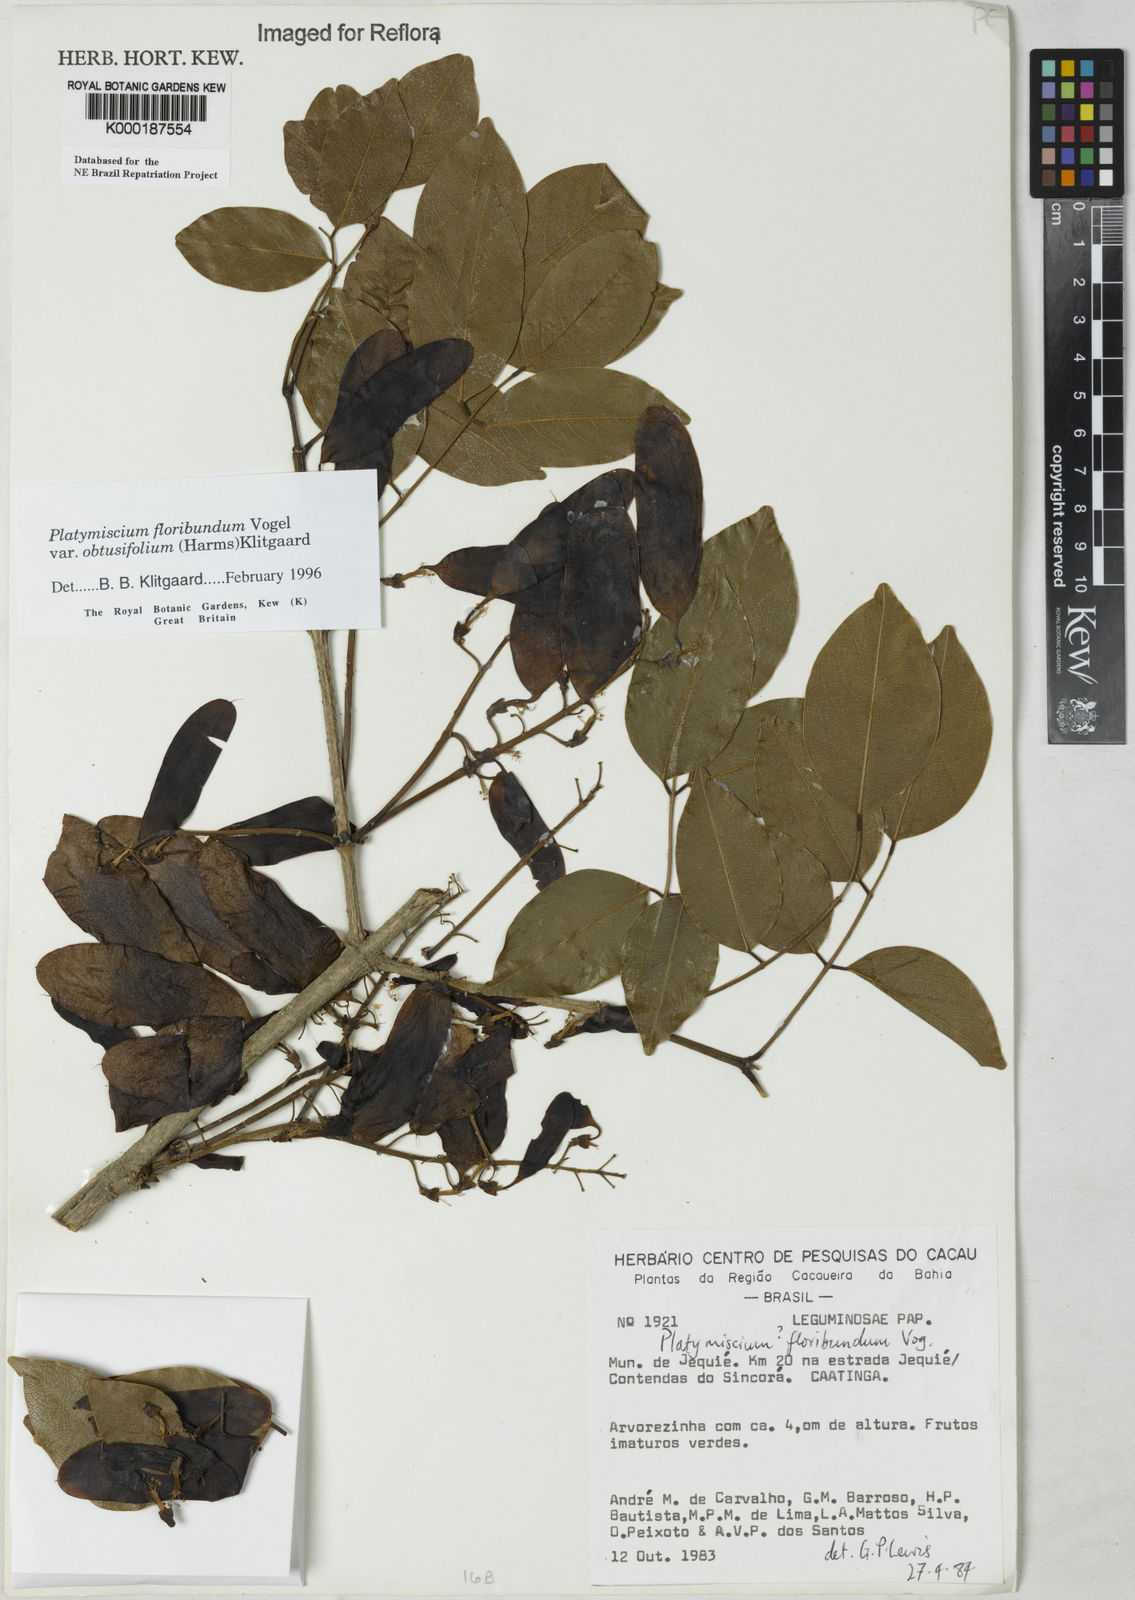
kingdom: Plantae
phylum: Tracheophyta
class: Magnoliopsida
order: Fabales
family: Fabaceae
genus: Platymiscium
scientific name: Platymiscium floribundum
